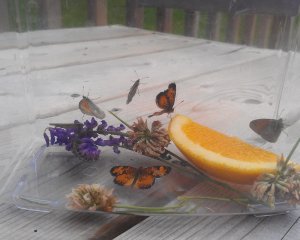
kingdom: Animalia
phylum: Arthropoda
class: Insecta
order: Lepidoptera
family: Nymphalidae
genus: Coenonympha
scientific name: Coenonympha tullia
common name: Large Heath
